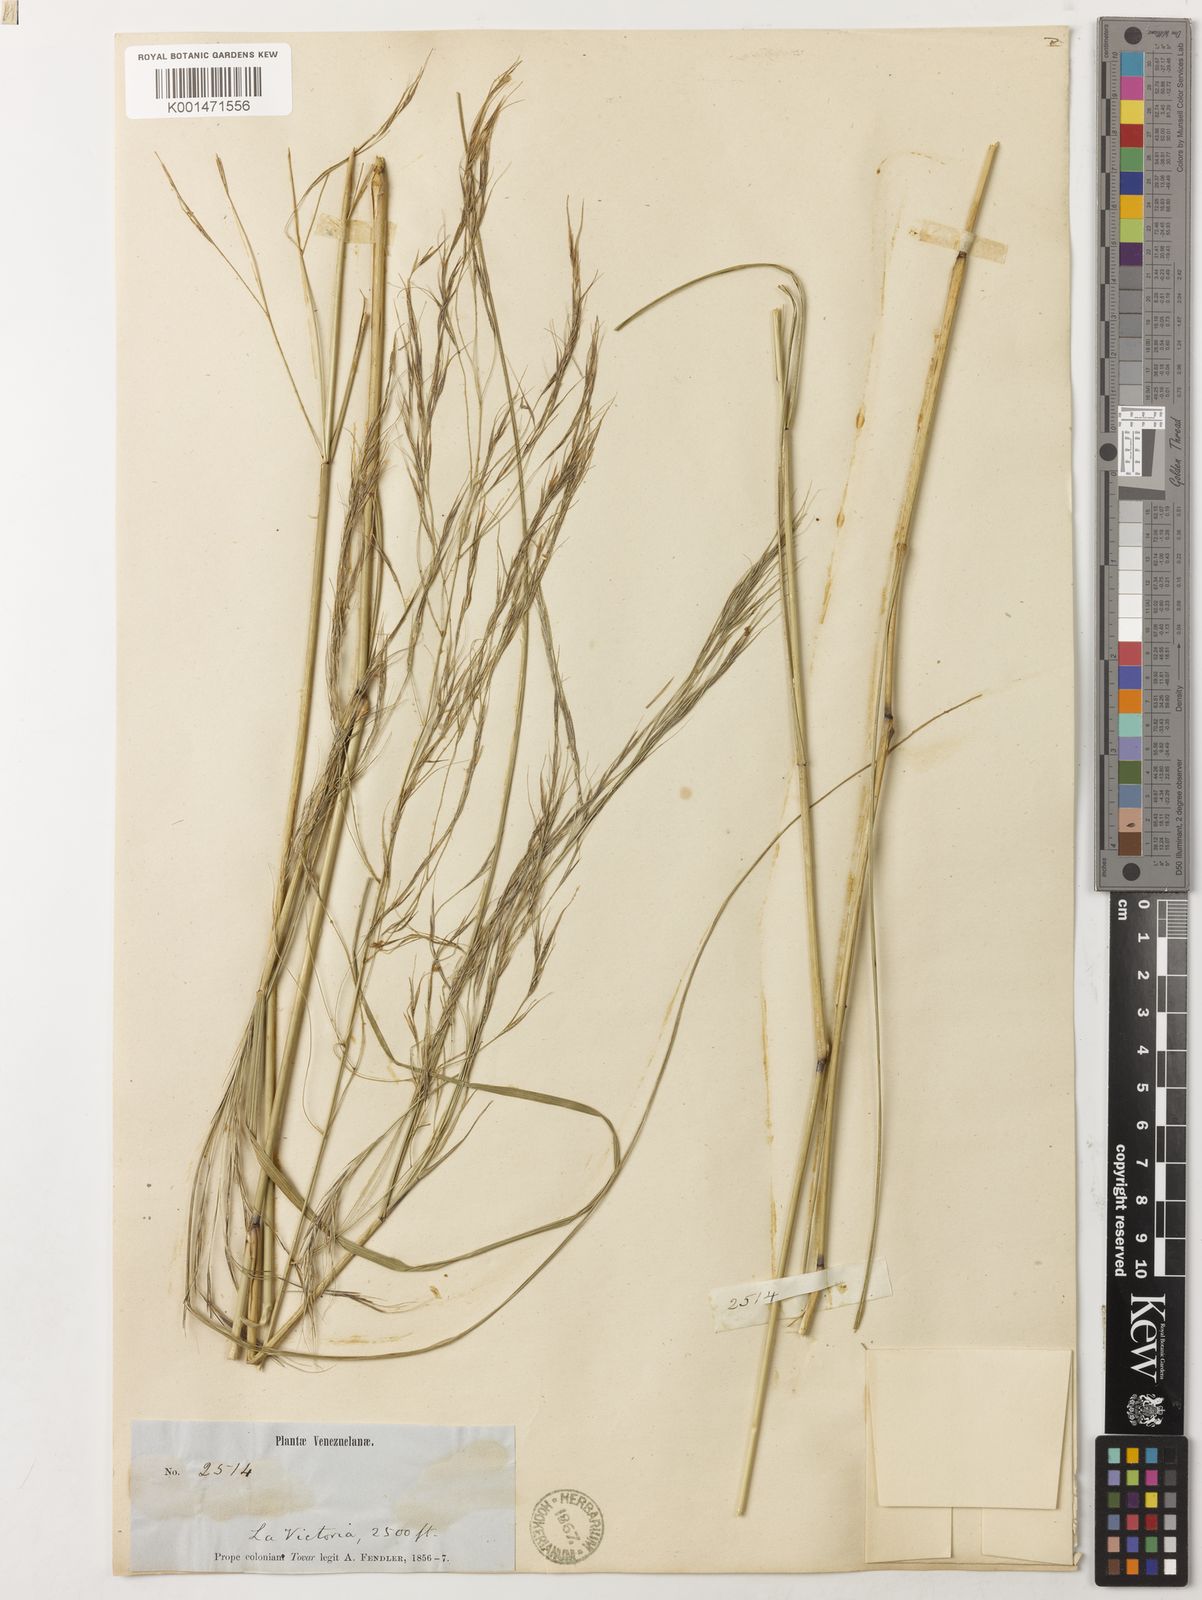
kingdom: Plantae
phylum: Tracheophyta
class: Liliopsida
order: Poales
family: Poaceae
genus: Aristida
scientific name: Aristida longifolia
